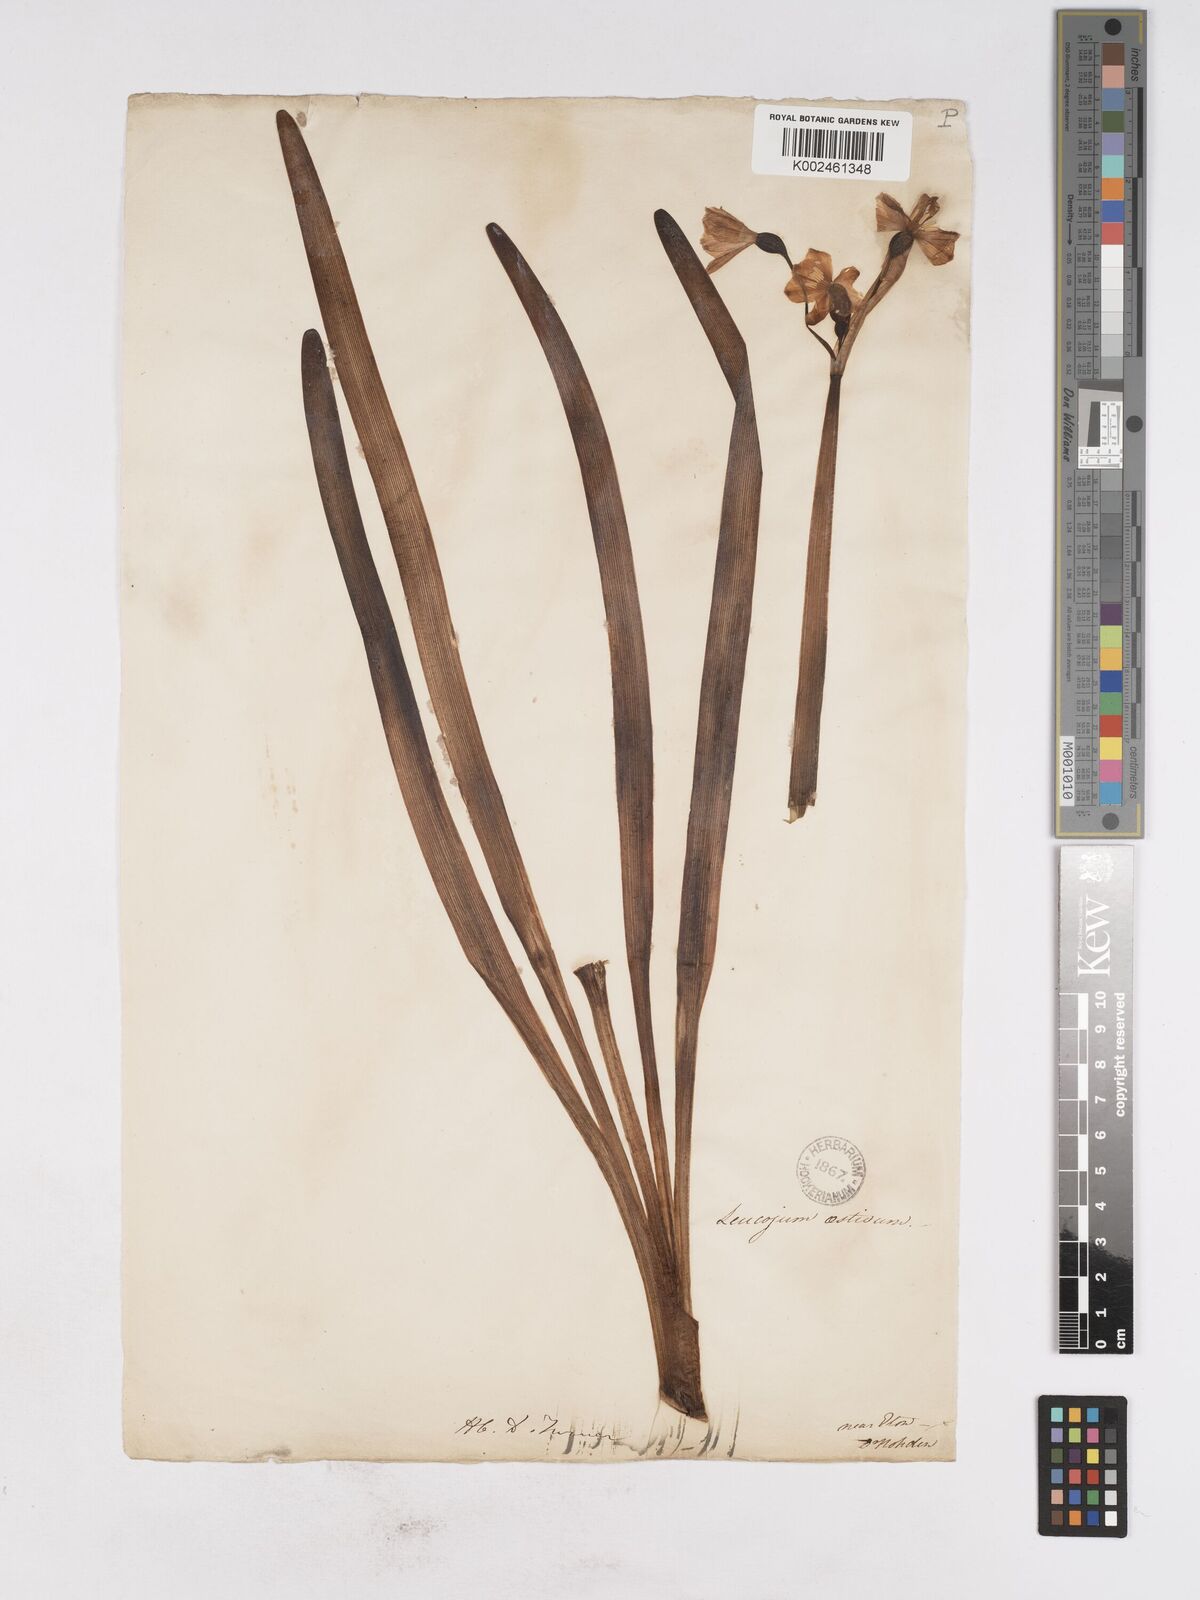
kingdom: Plantae
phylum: Tracheophyta
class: Liliopsida
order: Asparagales
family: Amaryllidaceae
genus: Leucojum
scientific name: Leucojum aestivum
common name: Summer snowflake
